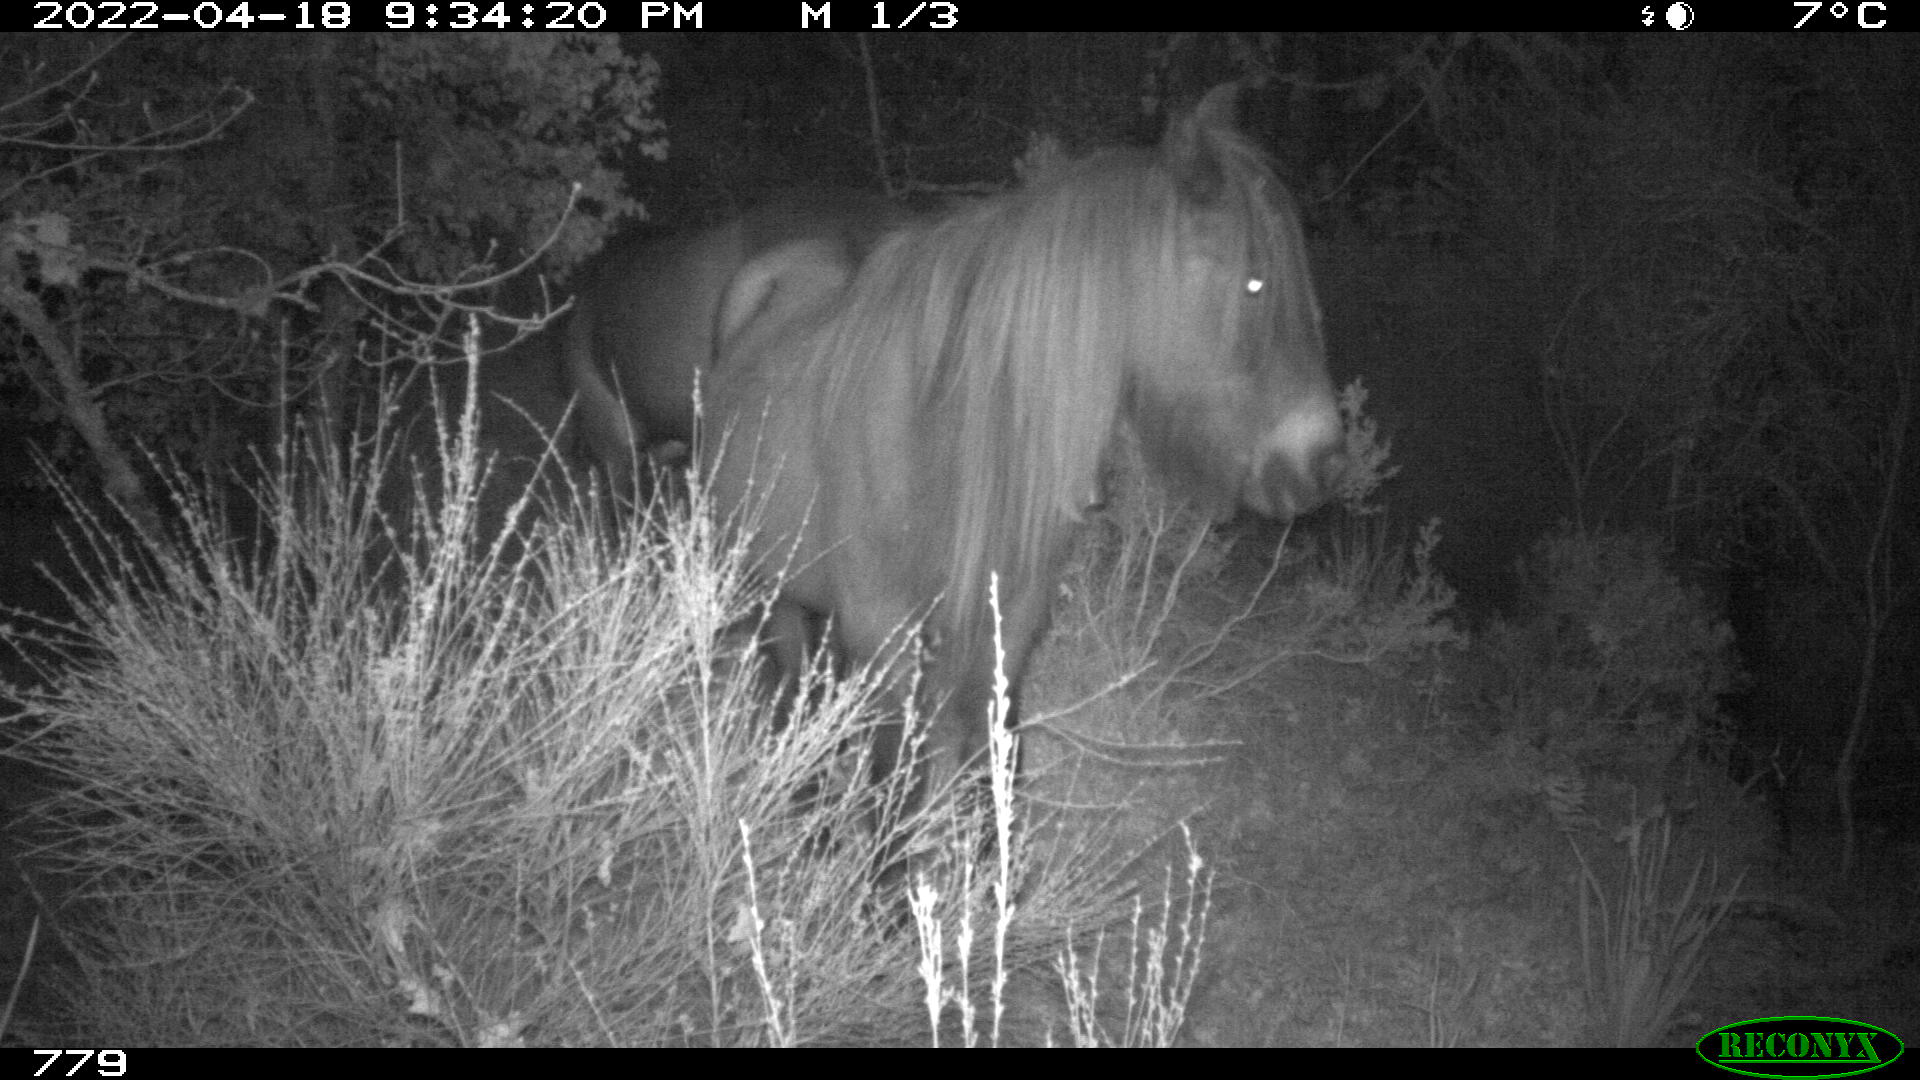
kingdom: Animalia
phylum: Chordata
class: Mammalia
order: Perissodactyla
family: Equidae
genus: Equus
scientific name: Equus caballus
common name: Horse
